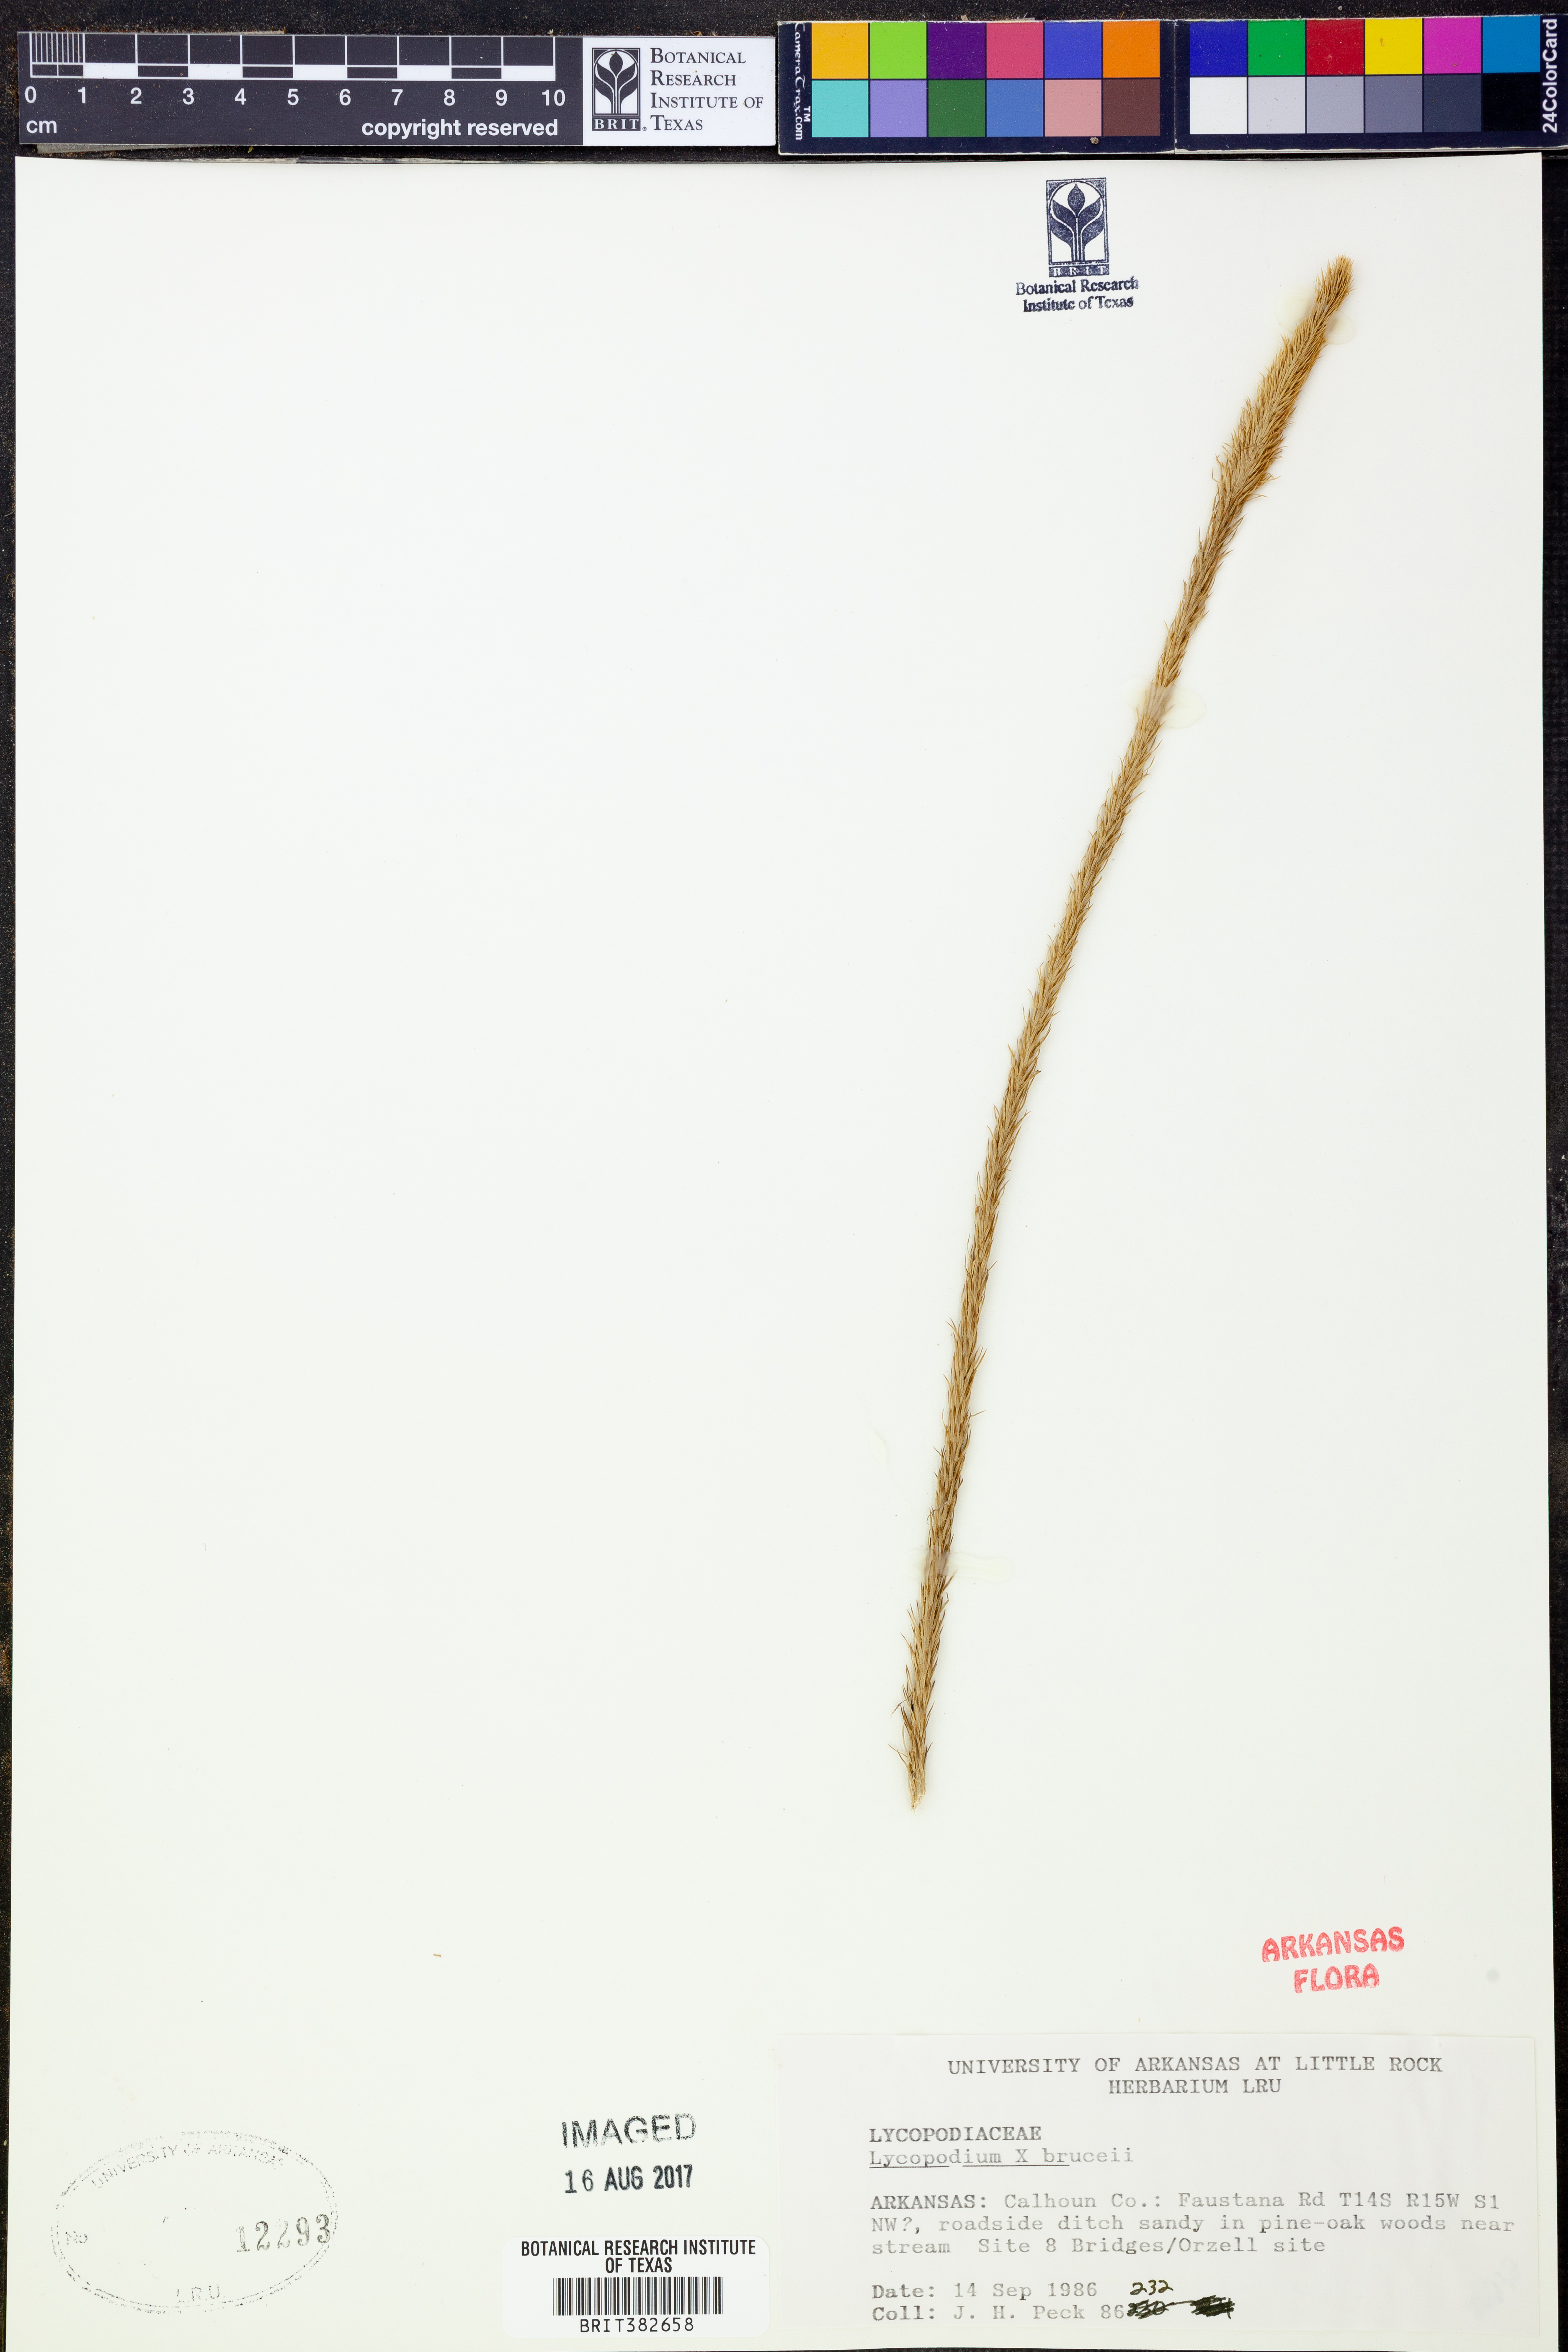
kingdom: Plantae
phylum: Tracheophyta
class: Lycopodiopsida
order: Lycopodiales
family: Lycopodiaceae
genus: Lycopodiella
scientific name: Lycopodiella brucei
